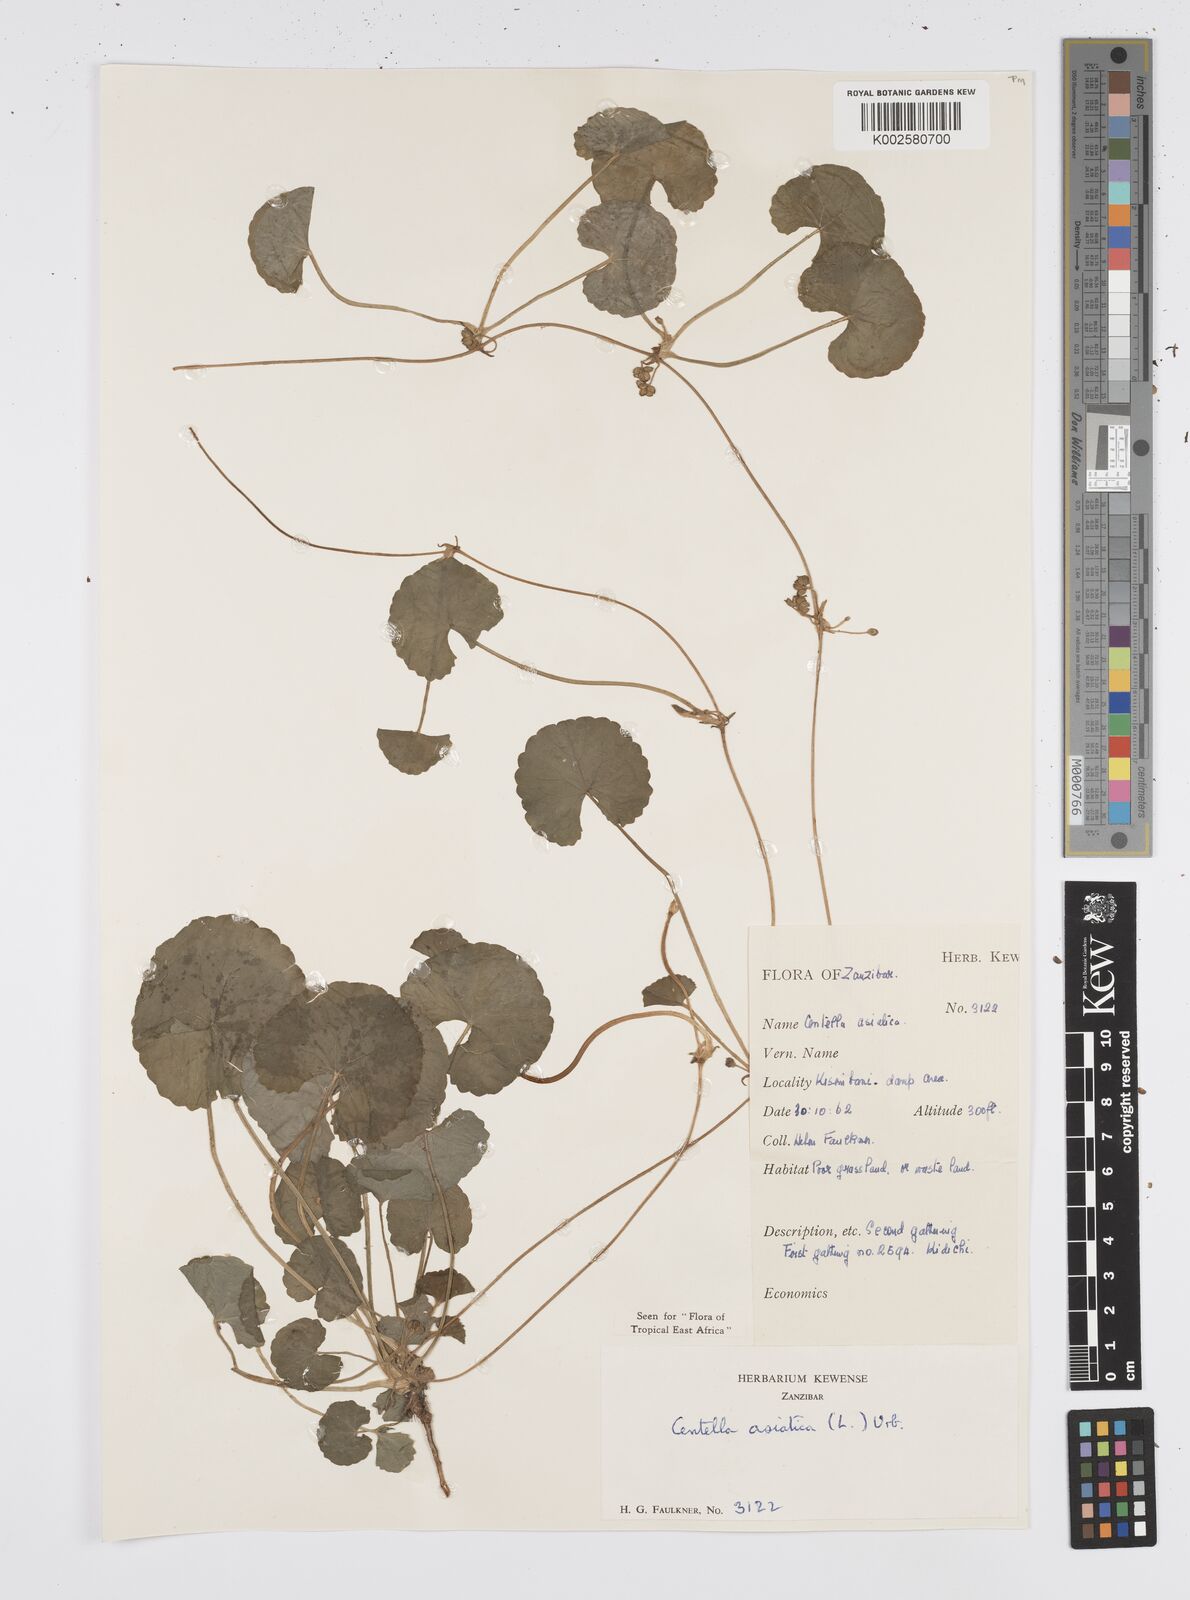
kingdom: Plantae
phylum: Tracheophyta
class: Magnoliopsida
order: Apiales
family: Apiaceae
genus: Centella
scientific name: Centella asiatica
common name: Spadeleaf
